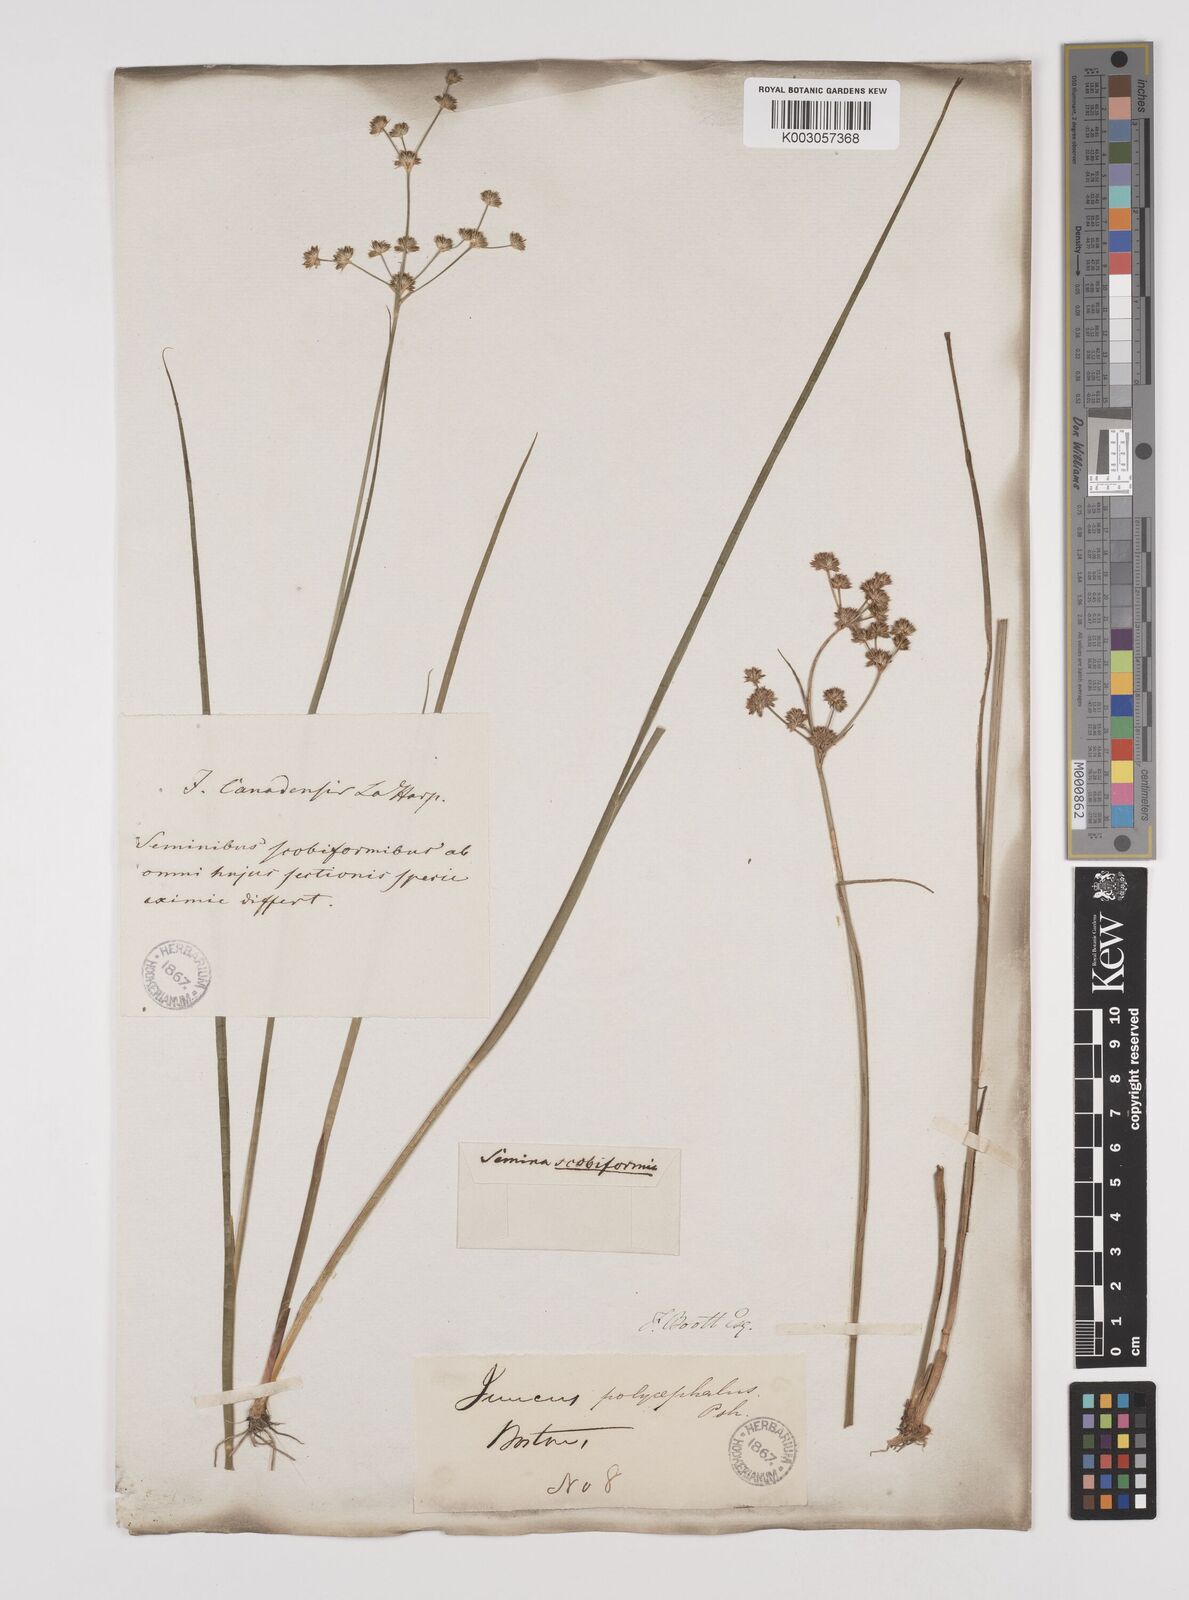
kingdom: Plantae
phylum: Tracheophyta
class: Liliopsida
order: Poales
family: Juncaceae
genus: Juncus
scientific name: Juncus nodosus
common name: Knotted rush
